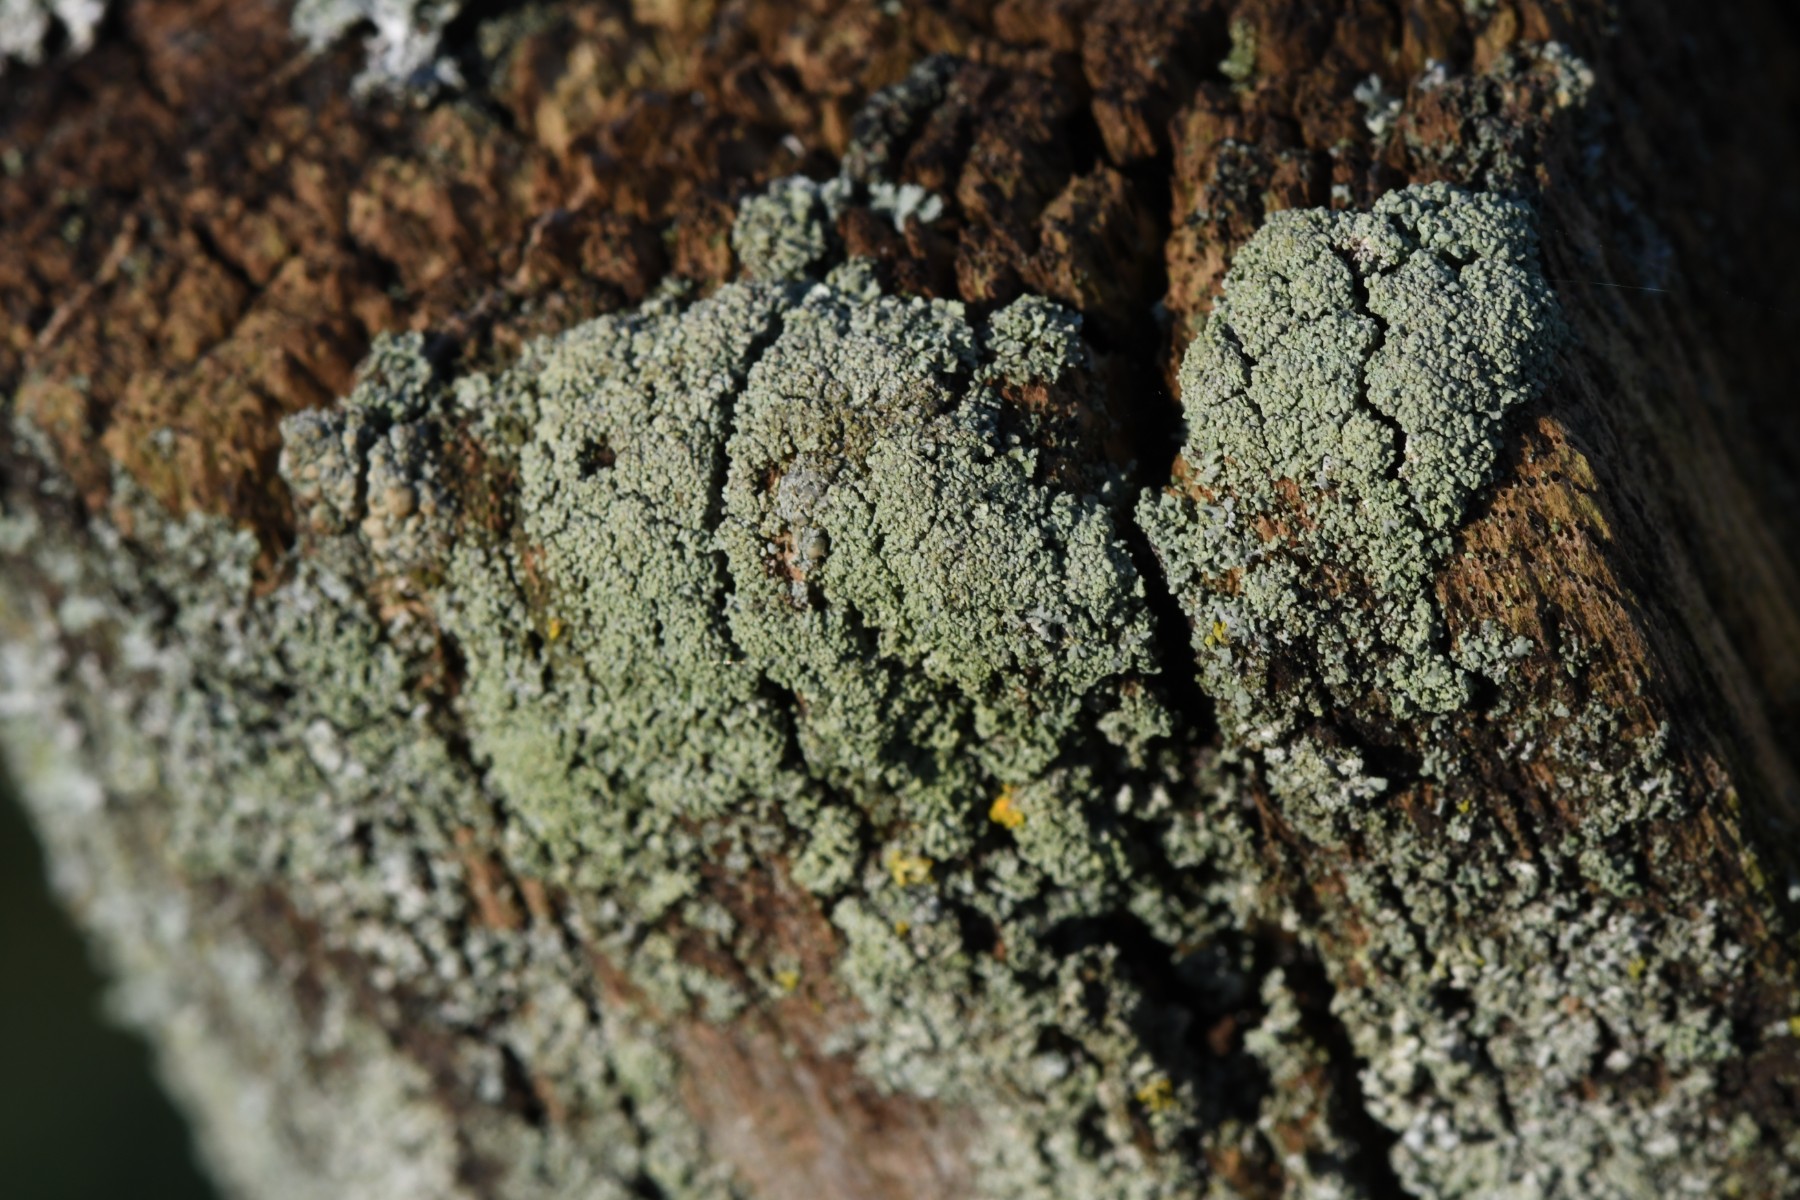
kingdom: Fungi
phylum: Ascomycota
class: Lecanoromycetes
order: Lecanorales
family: Parmeliaceae
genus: Lichen
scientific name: Lichen
